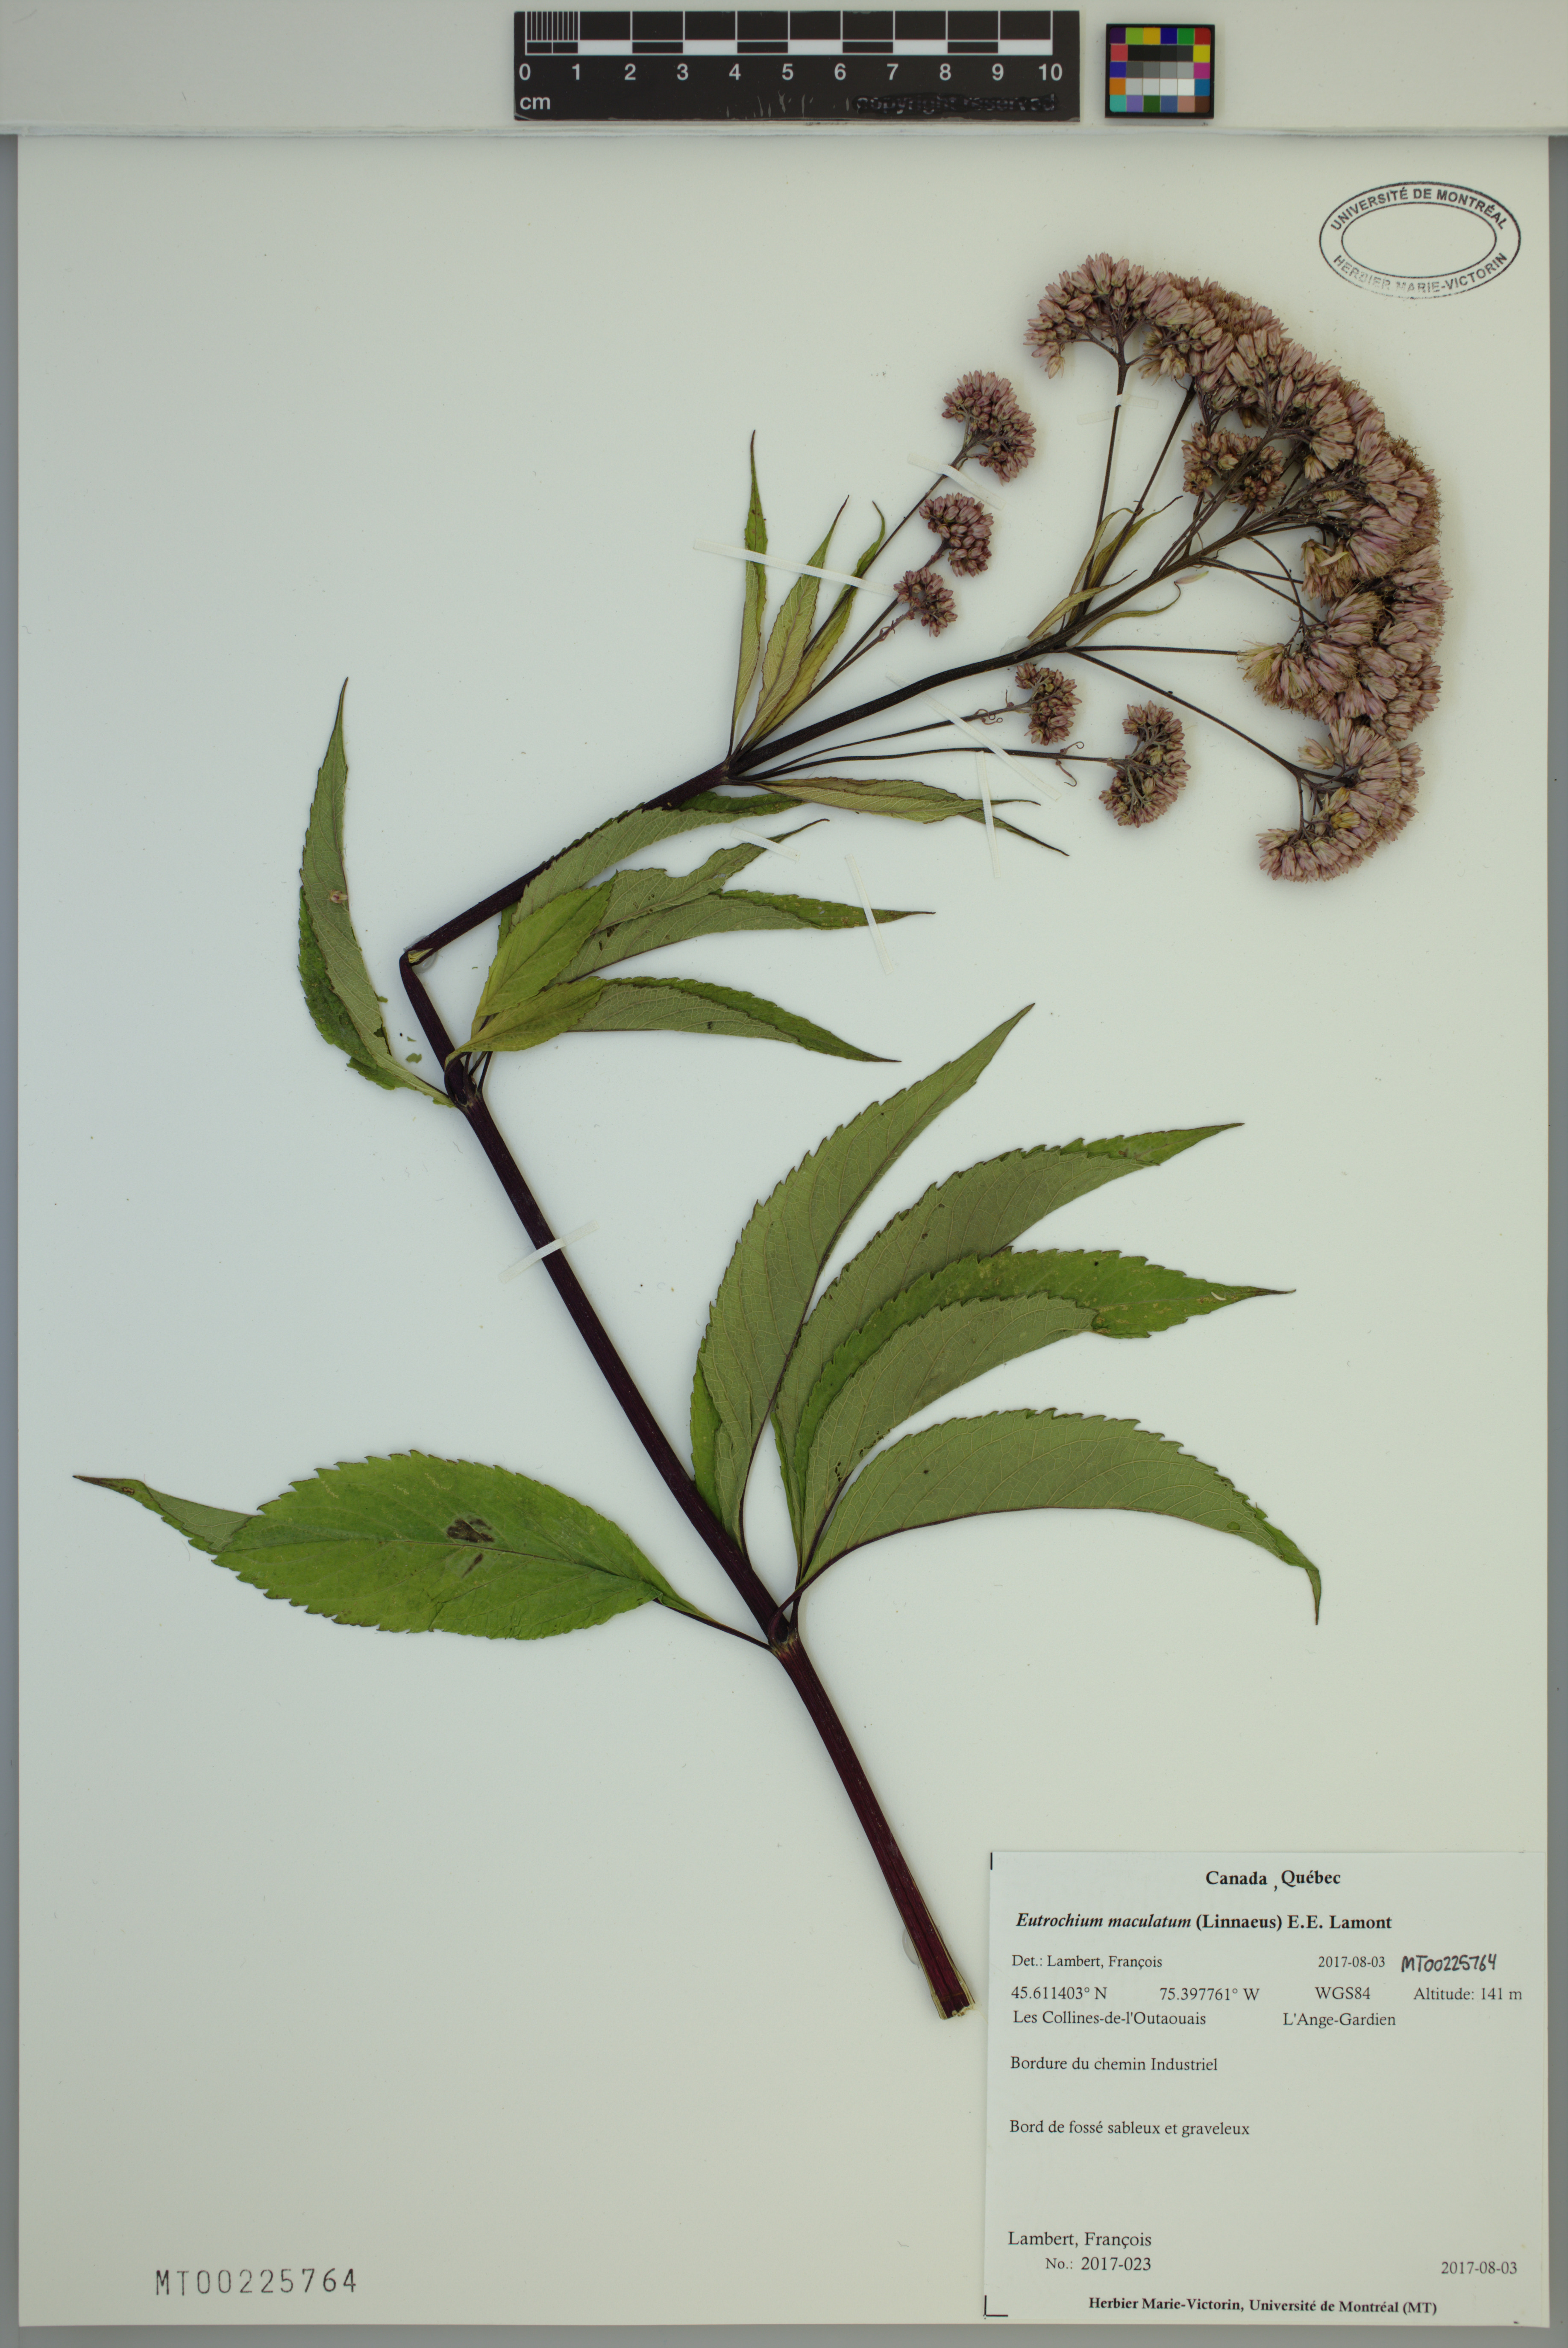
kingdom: Plantae
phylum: Tracheophyta
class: Magnoliopsida
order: Asterales
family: Asteraceae
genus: Eutrochium
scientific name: Eutrochium maculatum
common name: Spotted joe pye weed
